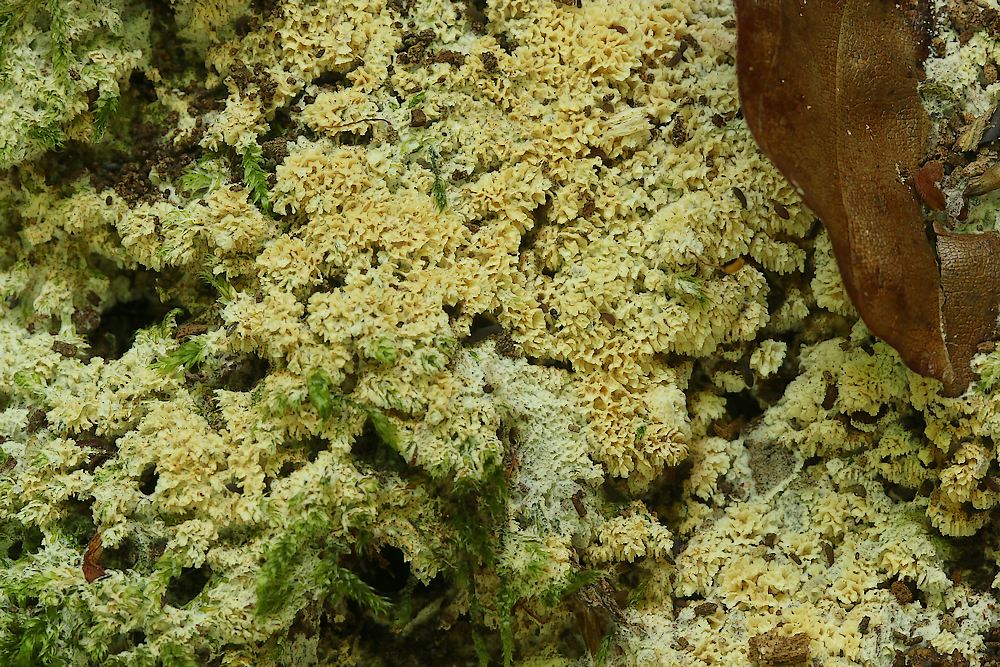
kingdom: Fungi
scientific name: Fungi
